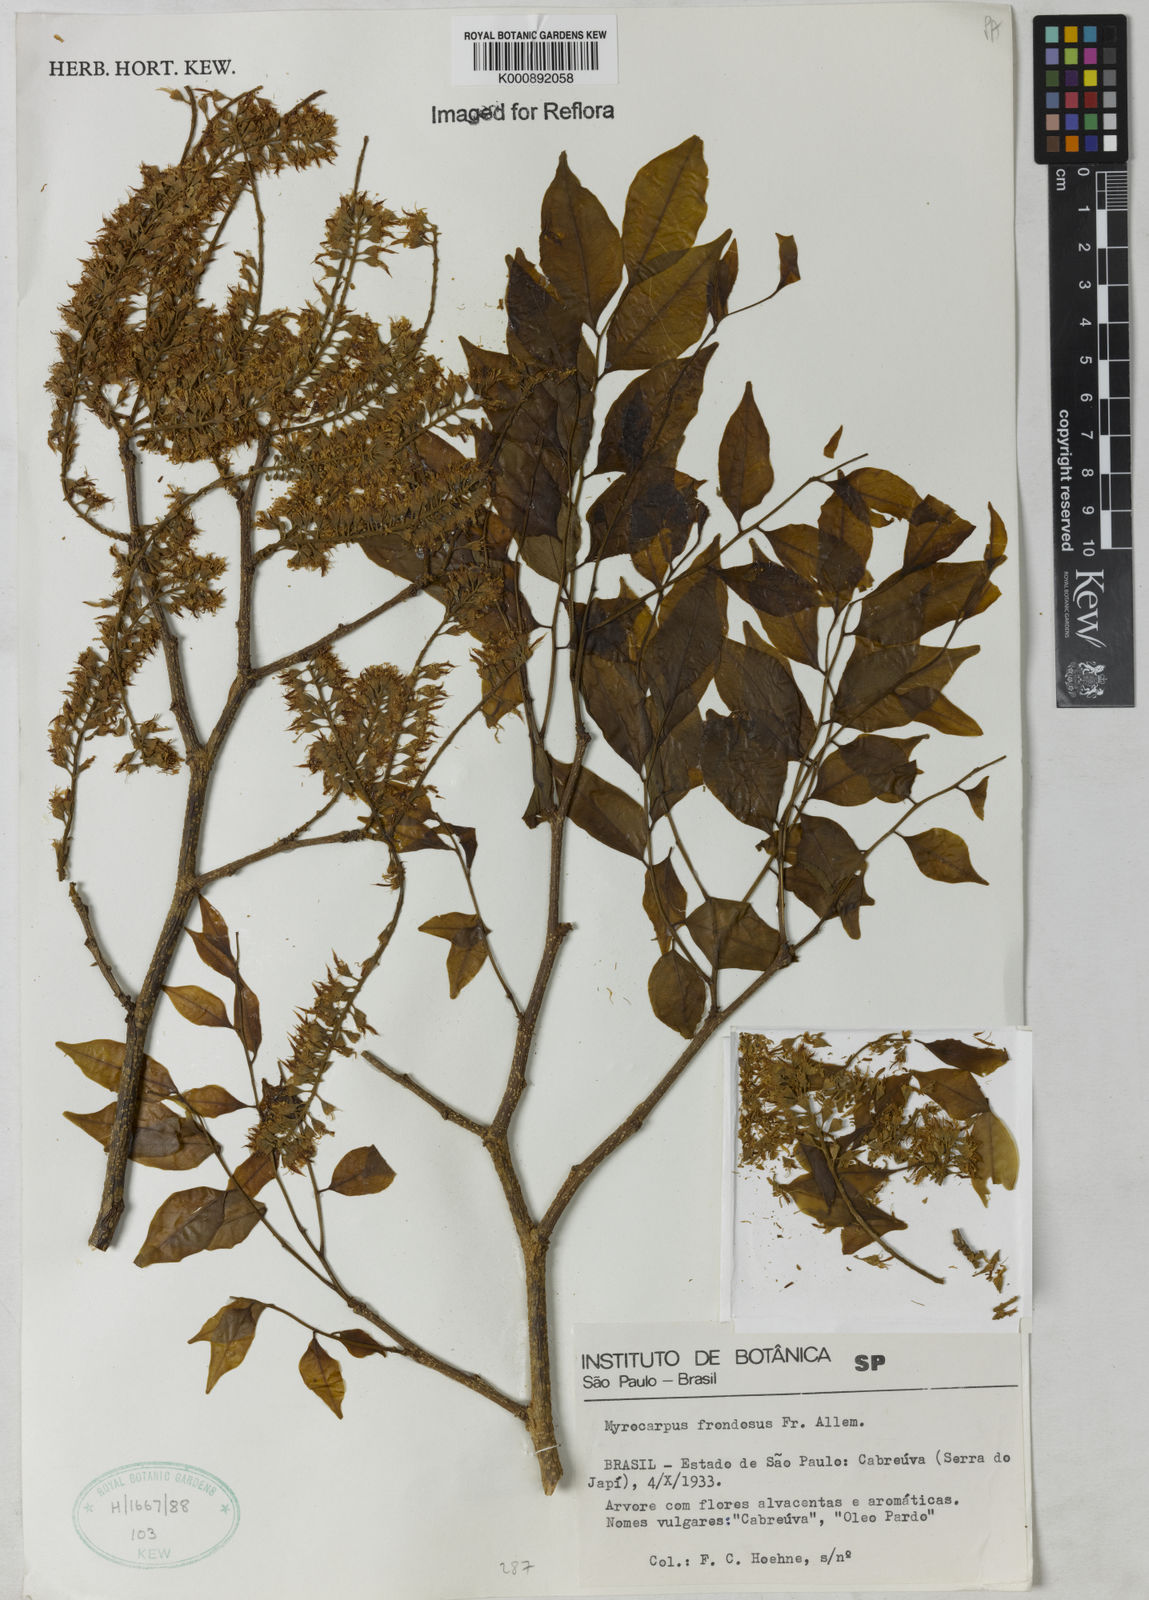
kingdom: Plantae
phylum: Tracheophyta
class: Magnoliopsida
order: Fabales
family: Fabaceae
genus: Myrocarpus
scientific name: Myrocarpus
